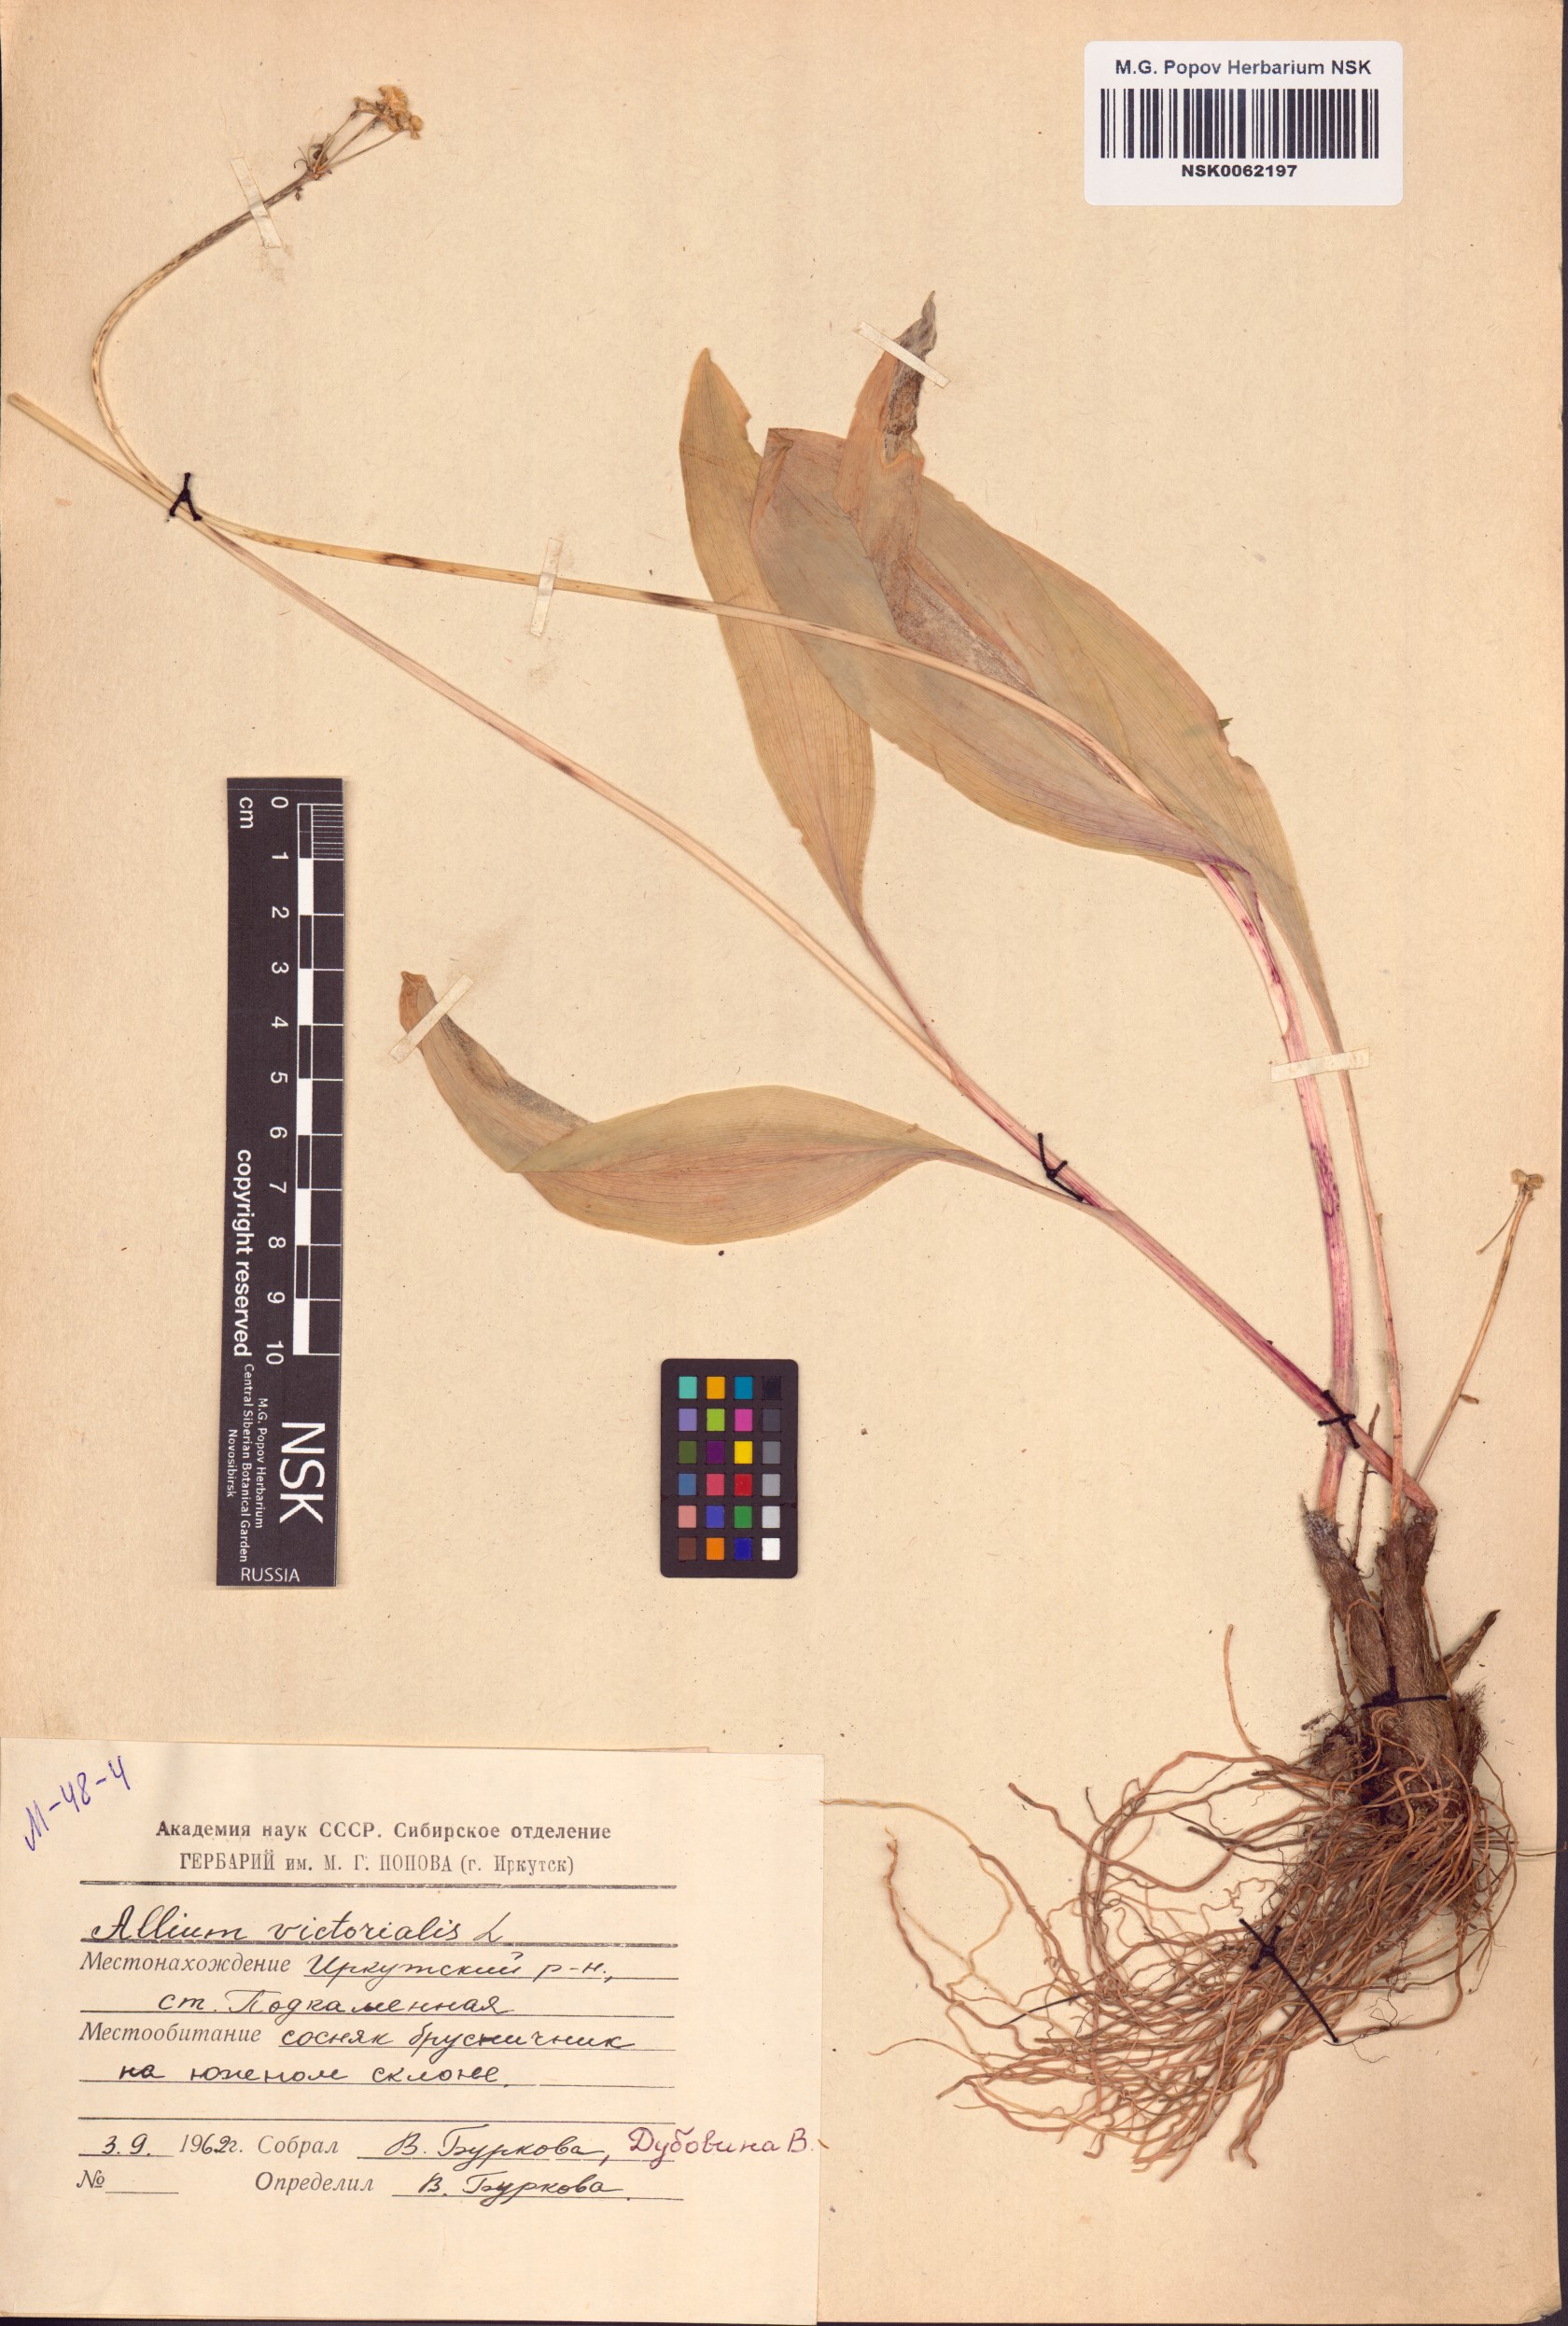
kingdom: Plantae
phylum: Tracheophyta
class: Liliopsida
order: Asparagales
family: Amaryllidaceae
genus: Allium
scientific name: Allium victorialis
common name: Alpine leek
